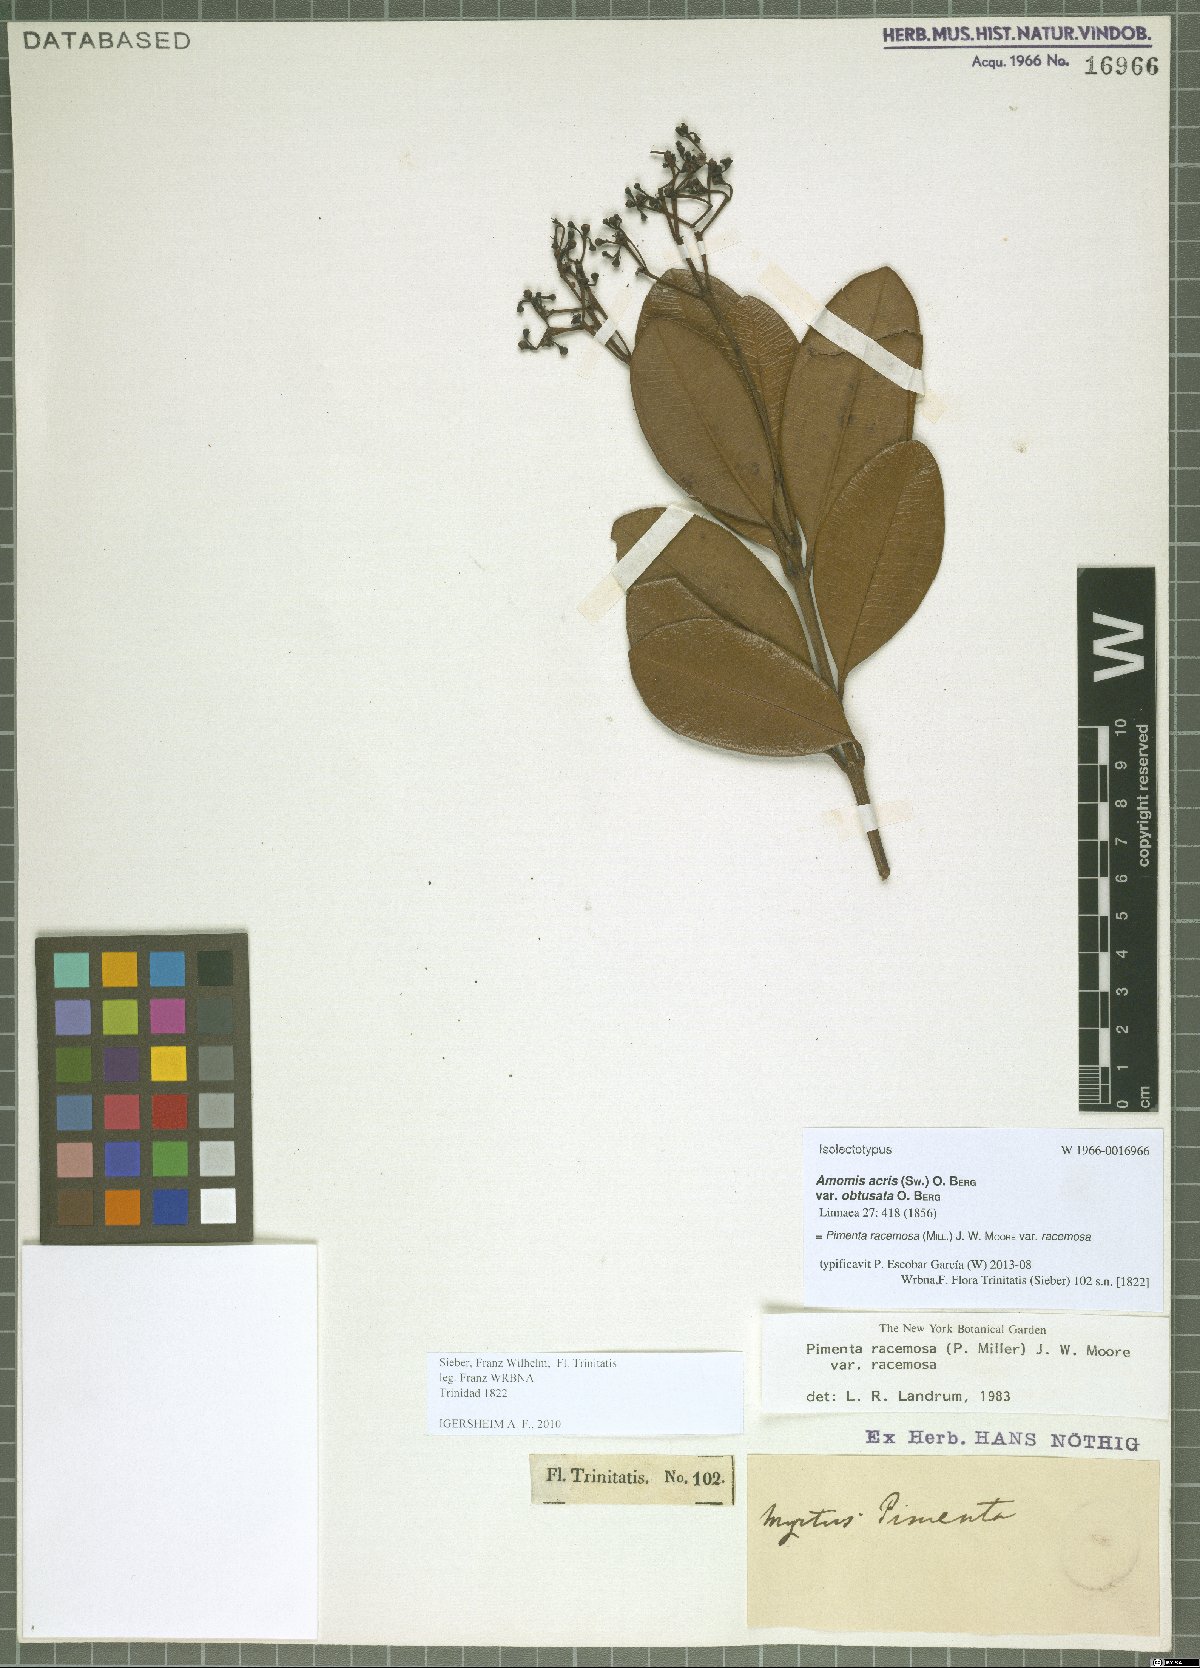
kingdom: Plantae
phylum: Tracheophyta
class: Magnoliopsida
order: Myrtales
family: Myrtaceae
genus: Pimenta
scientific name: Pimenta racemosa
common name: Bay rum tree
